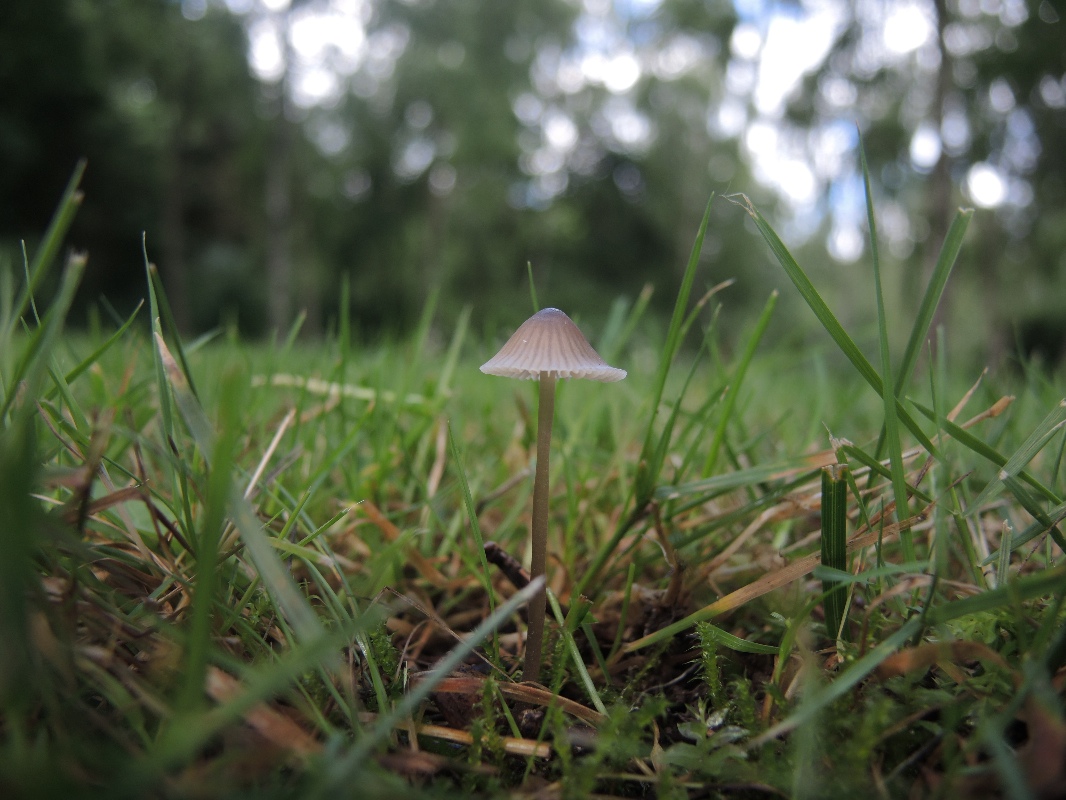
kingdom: Fungi
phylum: Basidiomycota
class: Agaricomycetes
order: Agaricales
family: Mycenaceae
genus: Mycena
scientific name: Mycena leptocephala
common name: klor-huesvamp
